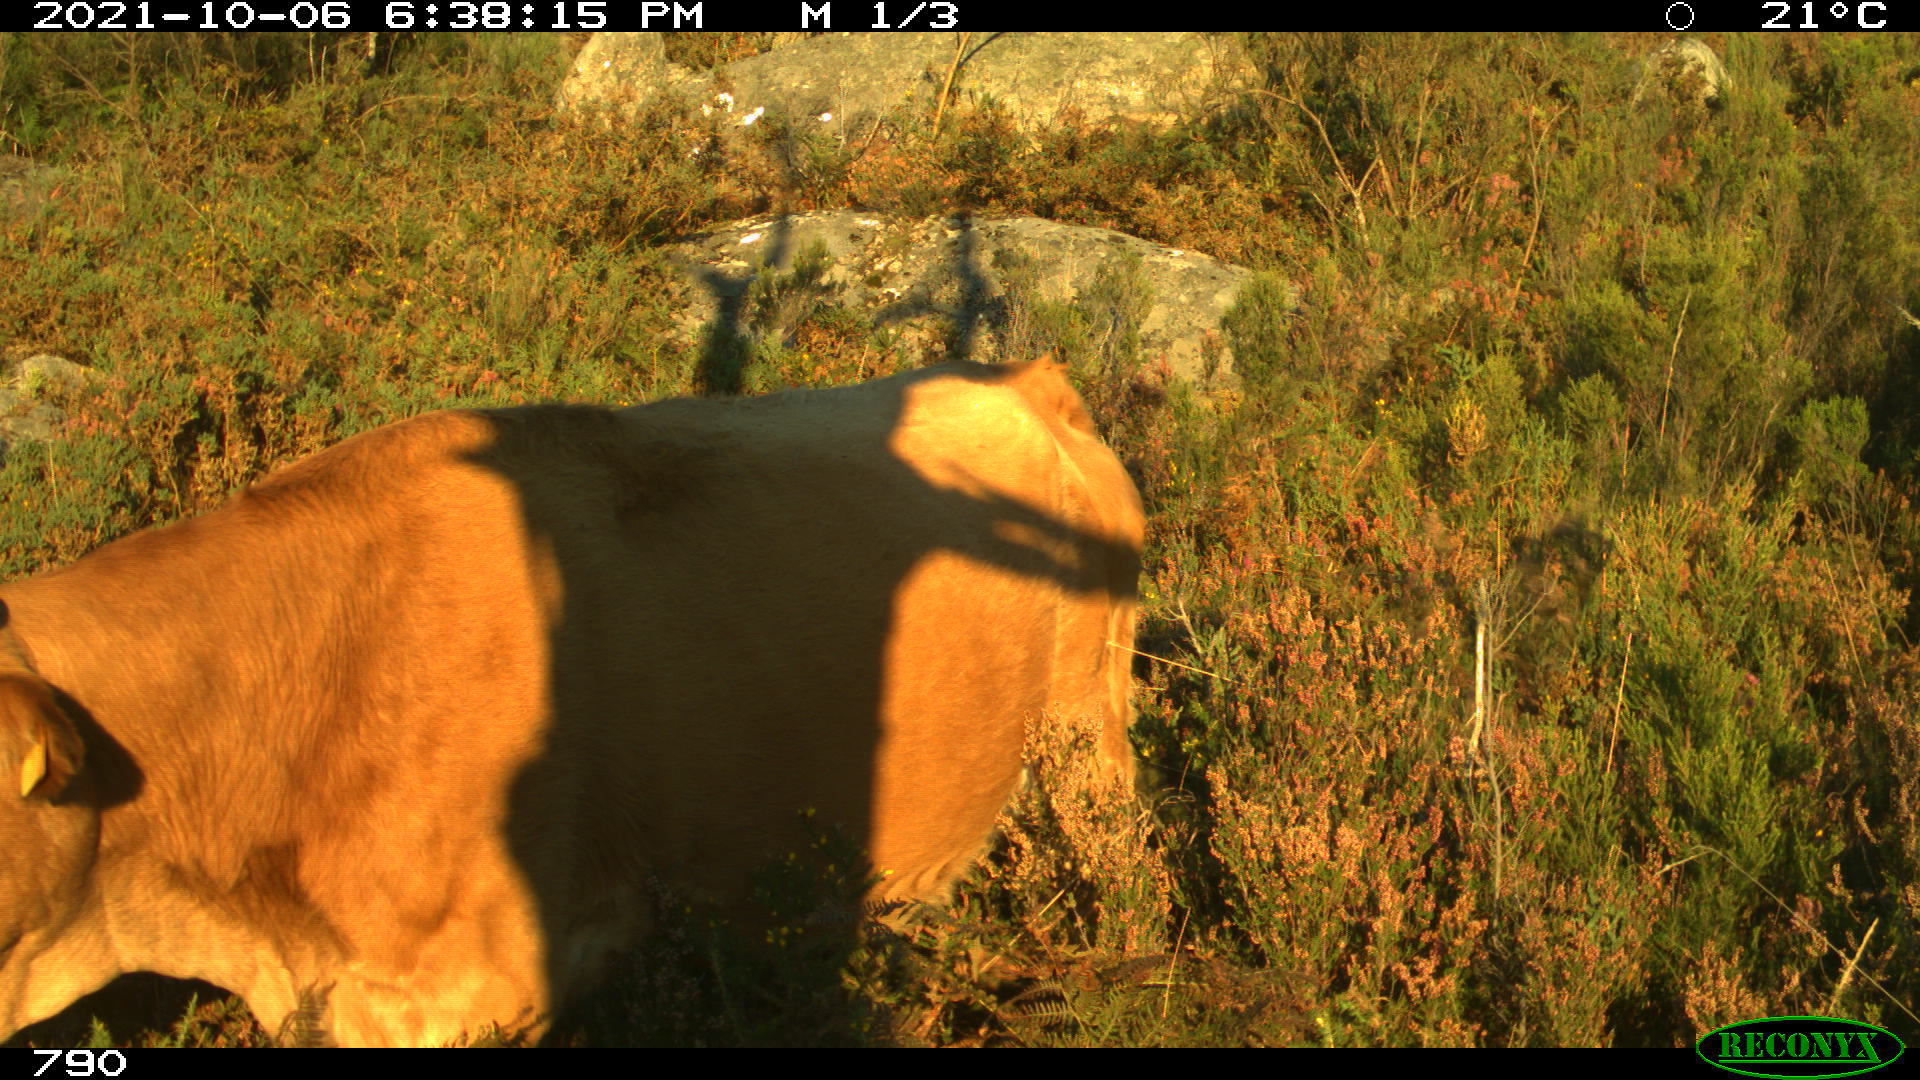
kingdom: Animalia
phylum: Chordata
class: Mammalia
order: Artiodactyla
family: Bovidae
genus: Bos
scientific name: Bos taurus
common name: Domesticated cattle
